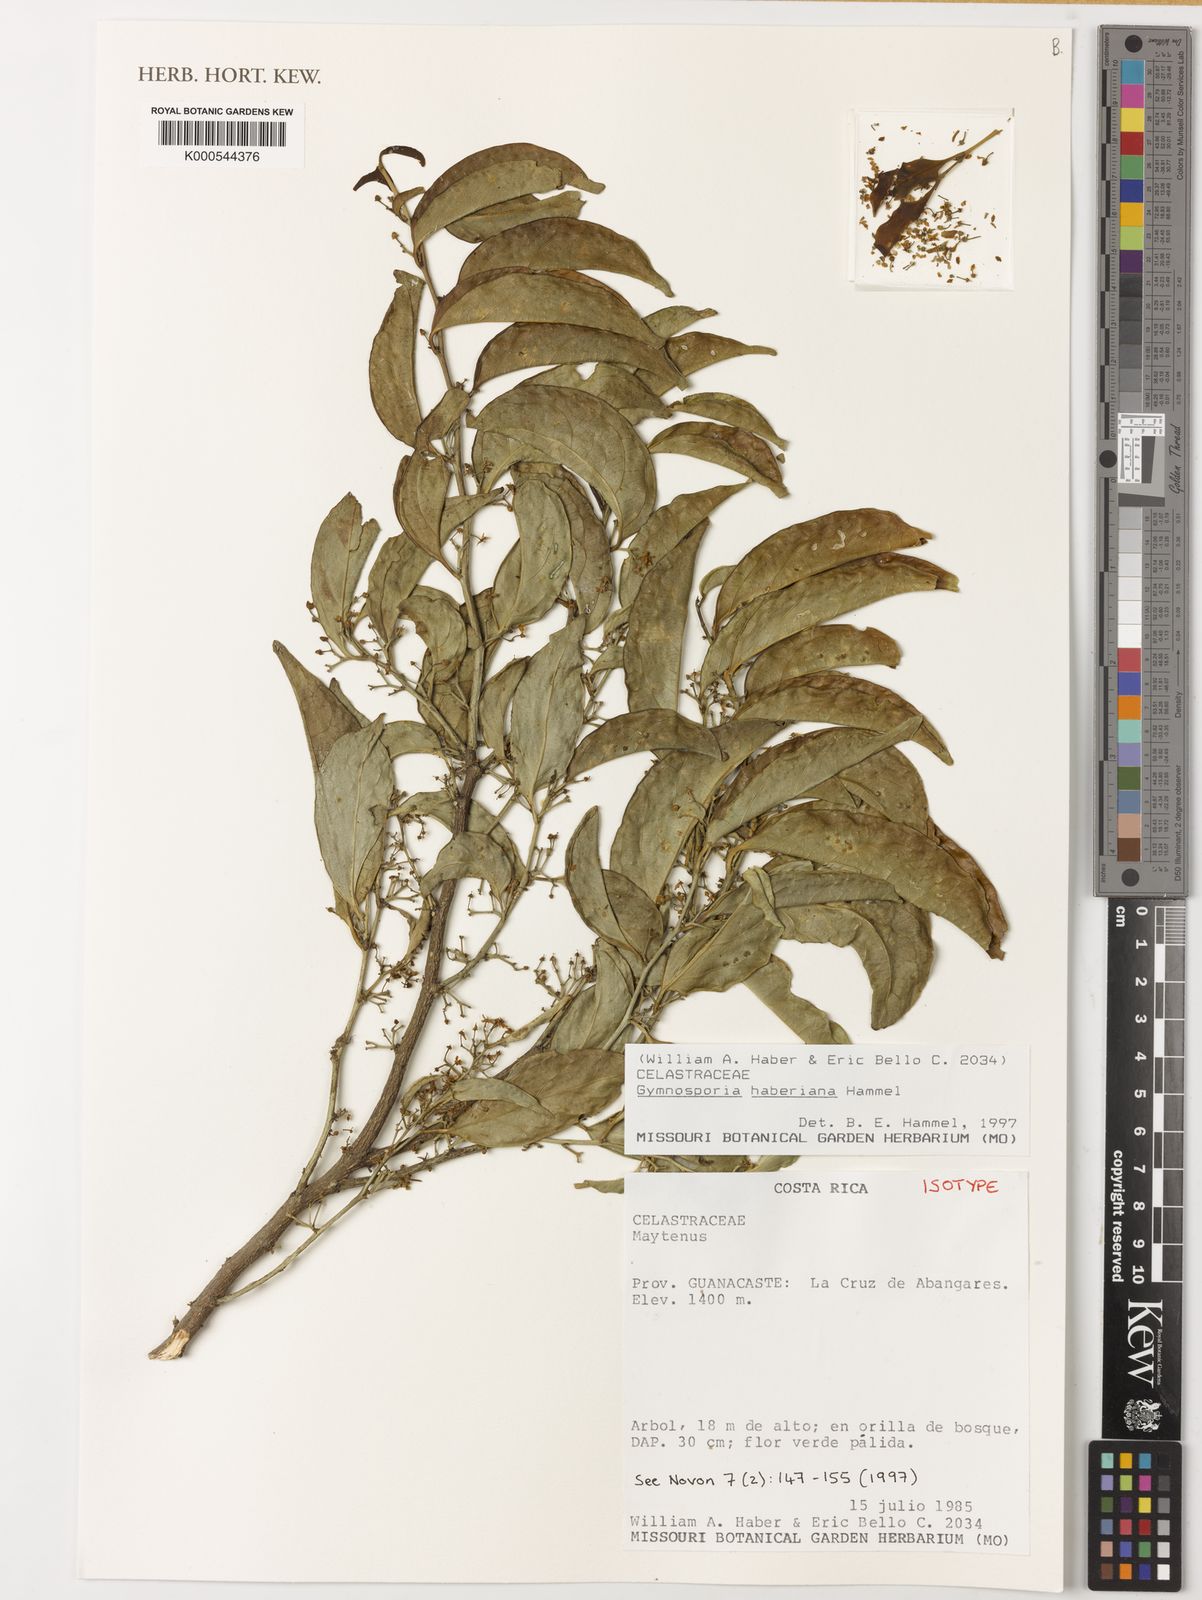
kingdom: Plantae
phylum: Tracheophyta
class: Magnoliopsida
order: Celastrales
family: Celastraceae
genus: Maytenus
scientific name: Maytenus
